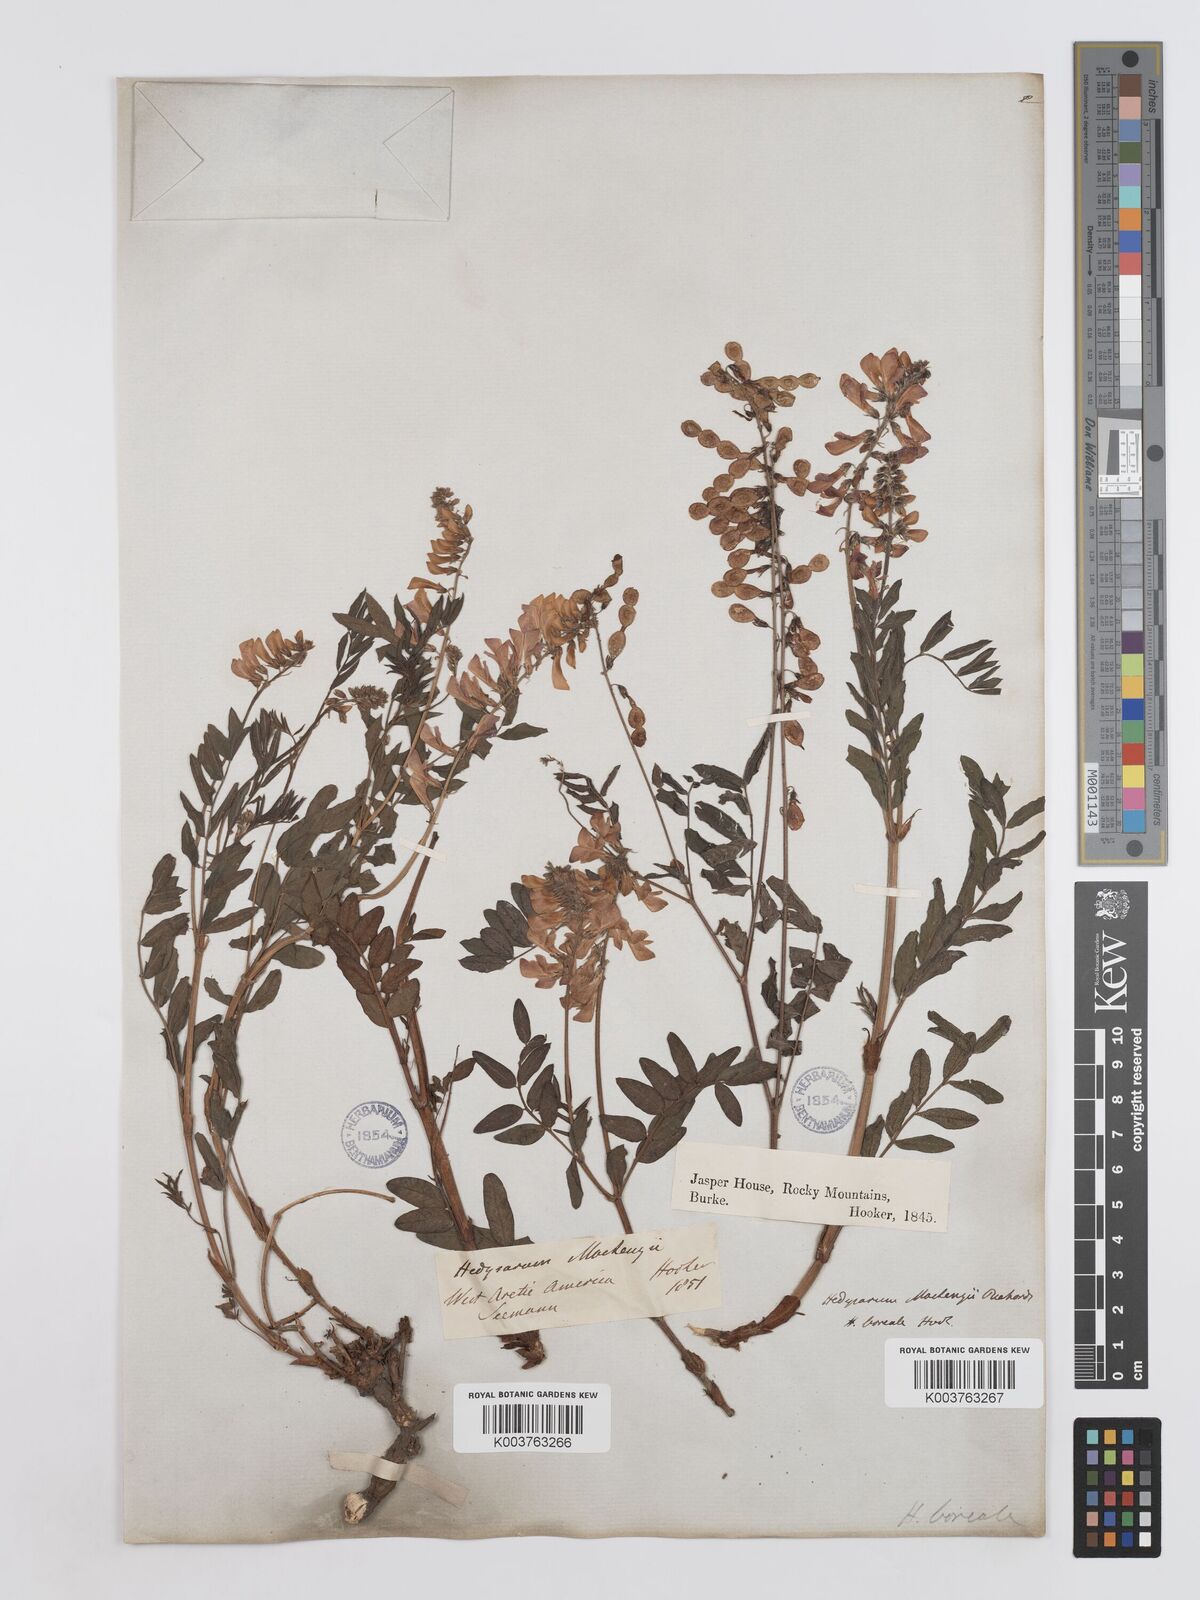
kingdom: Plantae
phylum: Tracheophyta
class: Magnoliopsida
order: Fabales
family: Fabaceae
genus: Hedysarum
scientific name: Hedysarum boreale
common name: Northern sweet-vetch
